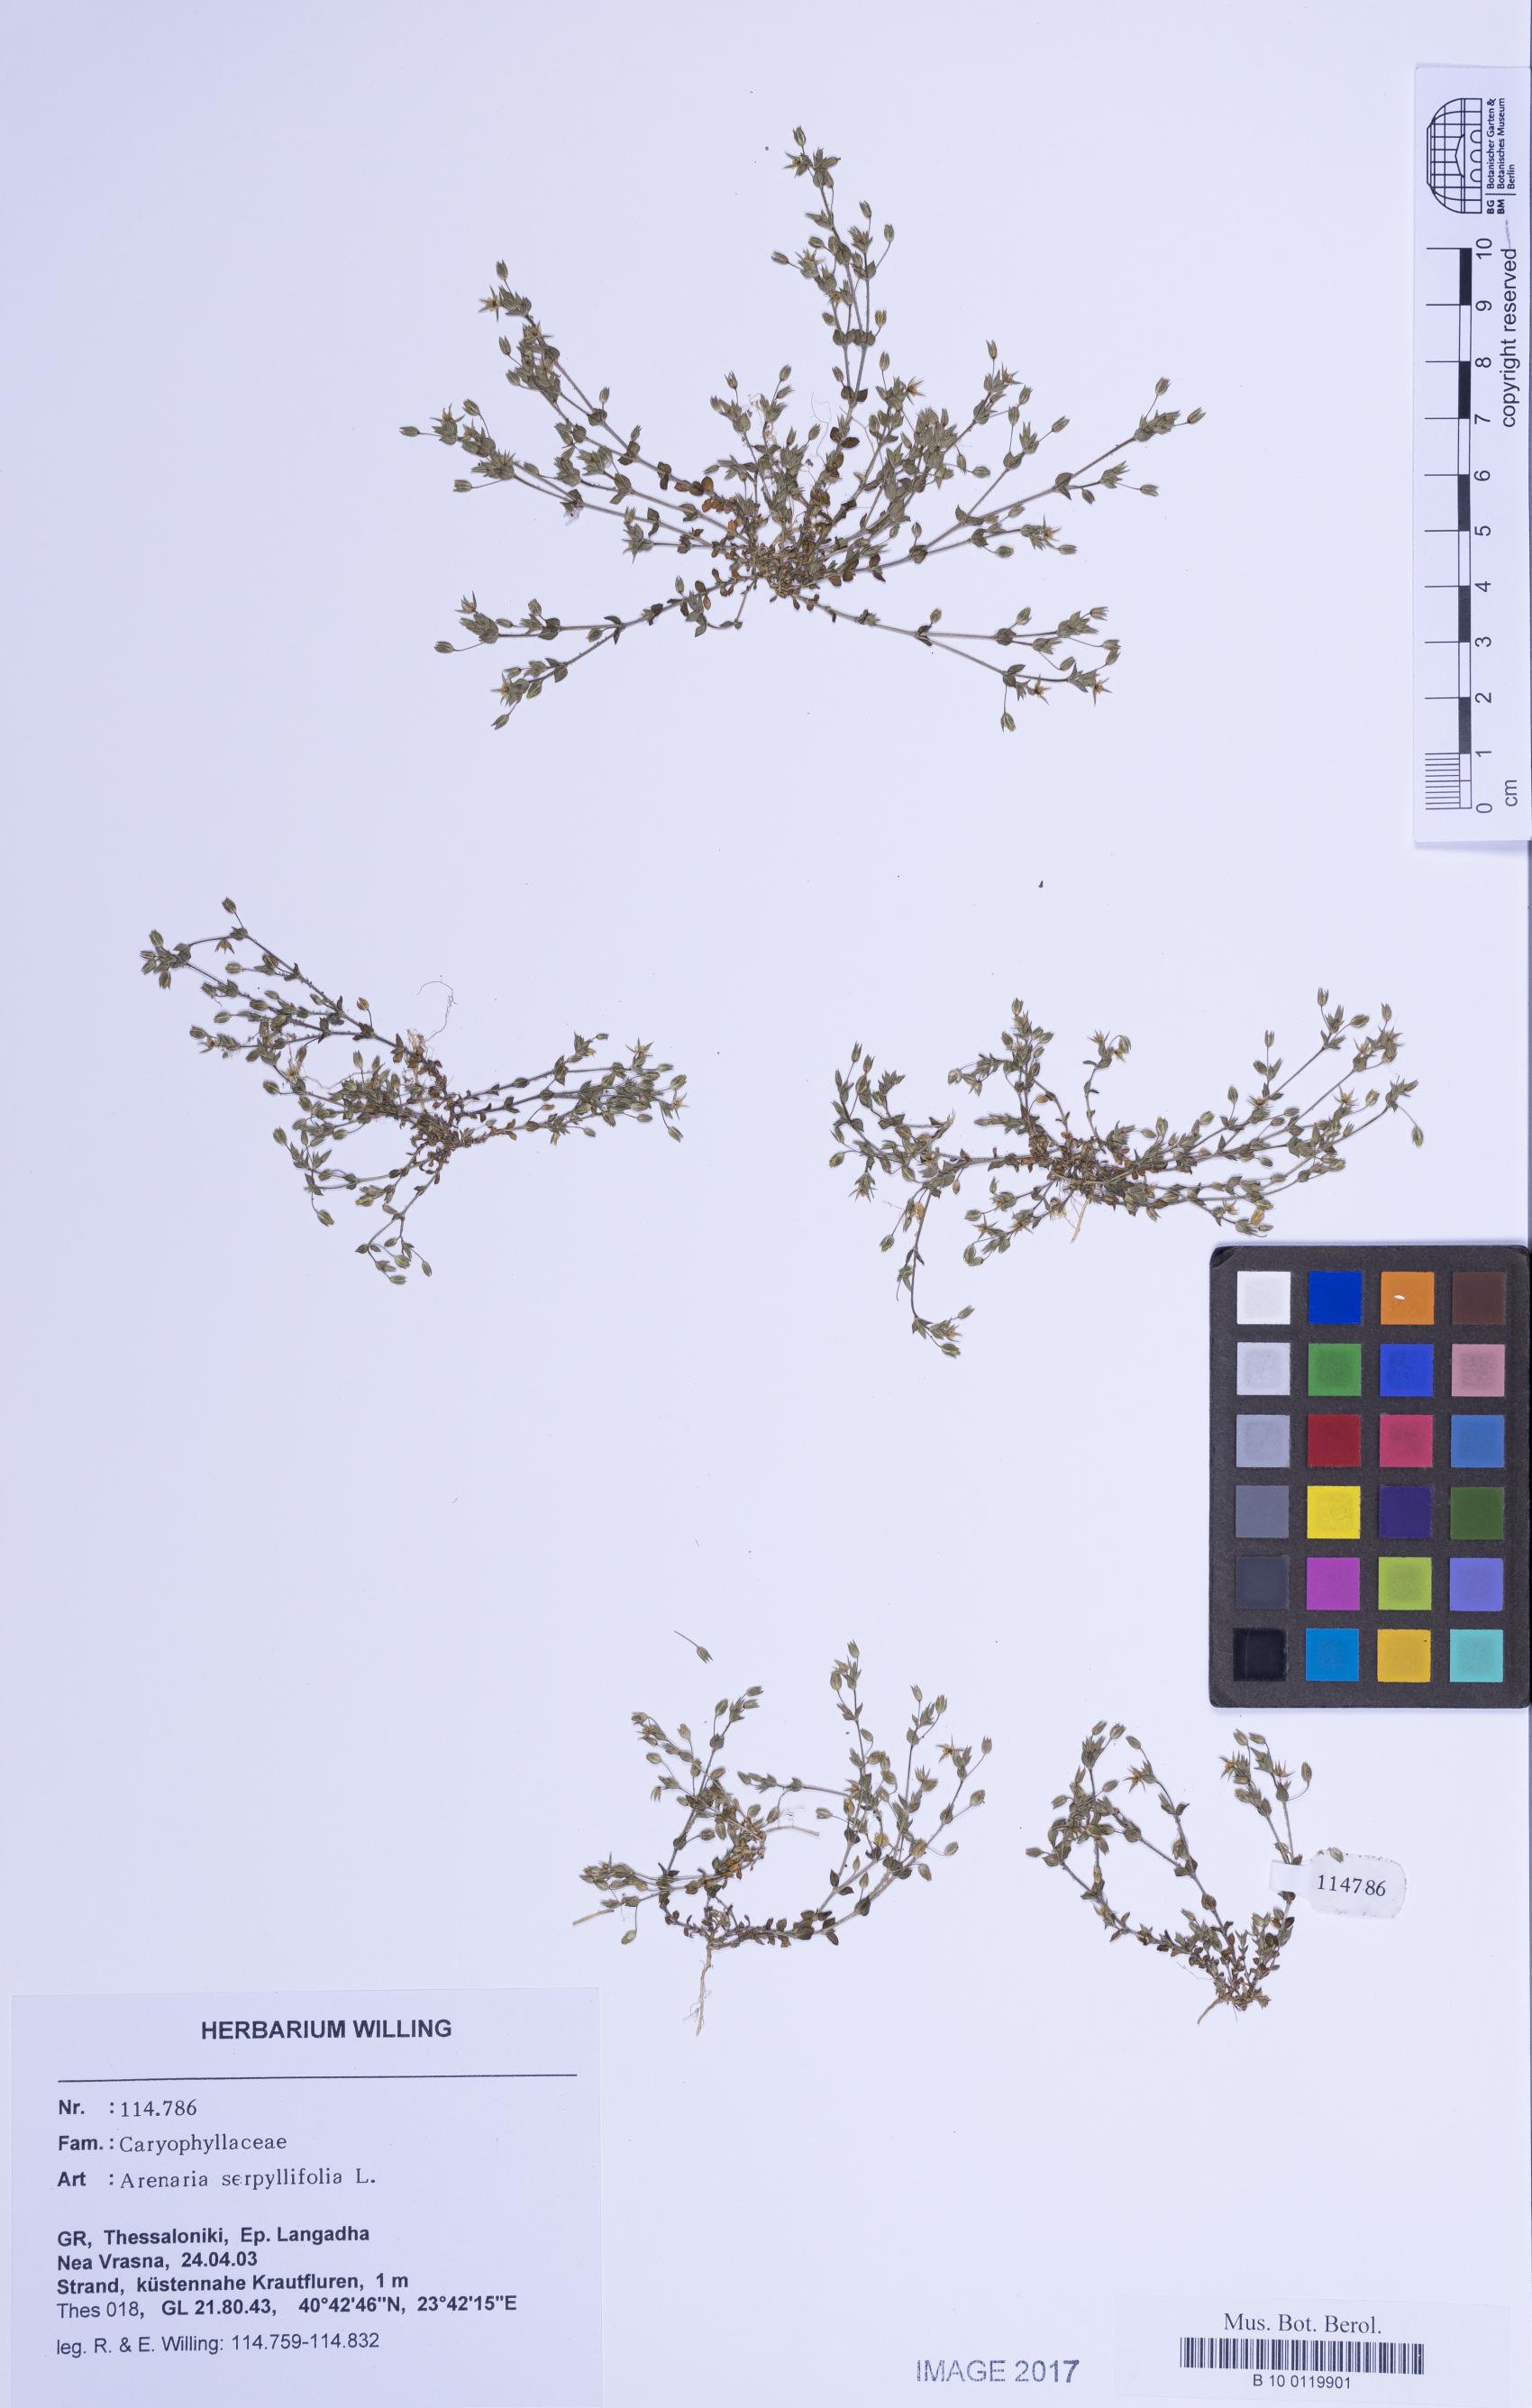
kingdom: Plantae
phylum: Tracheophyta
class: Magnoliopsida
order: Caryophyllales
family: Caryophyllaceae
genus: Arenaria
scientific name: Arenaria serpyllifolia
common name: Thyme-leaved sandwort
